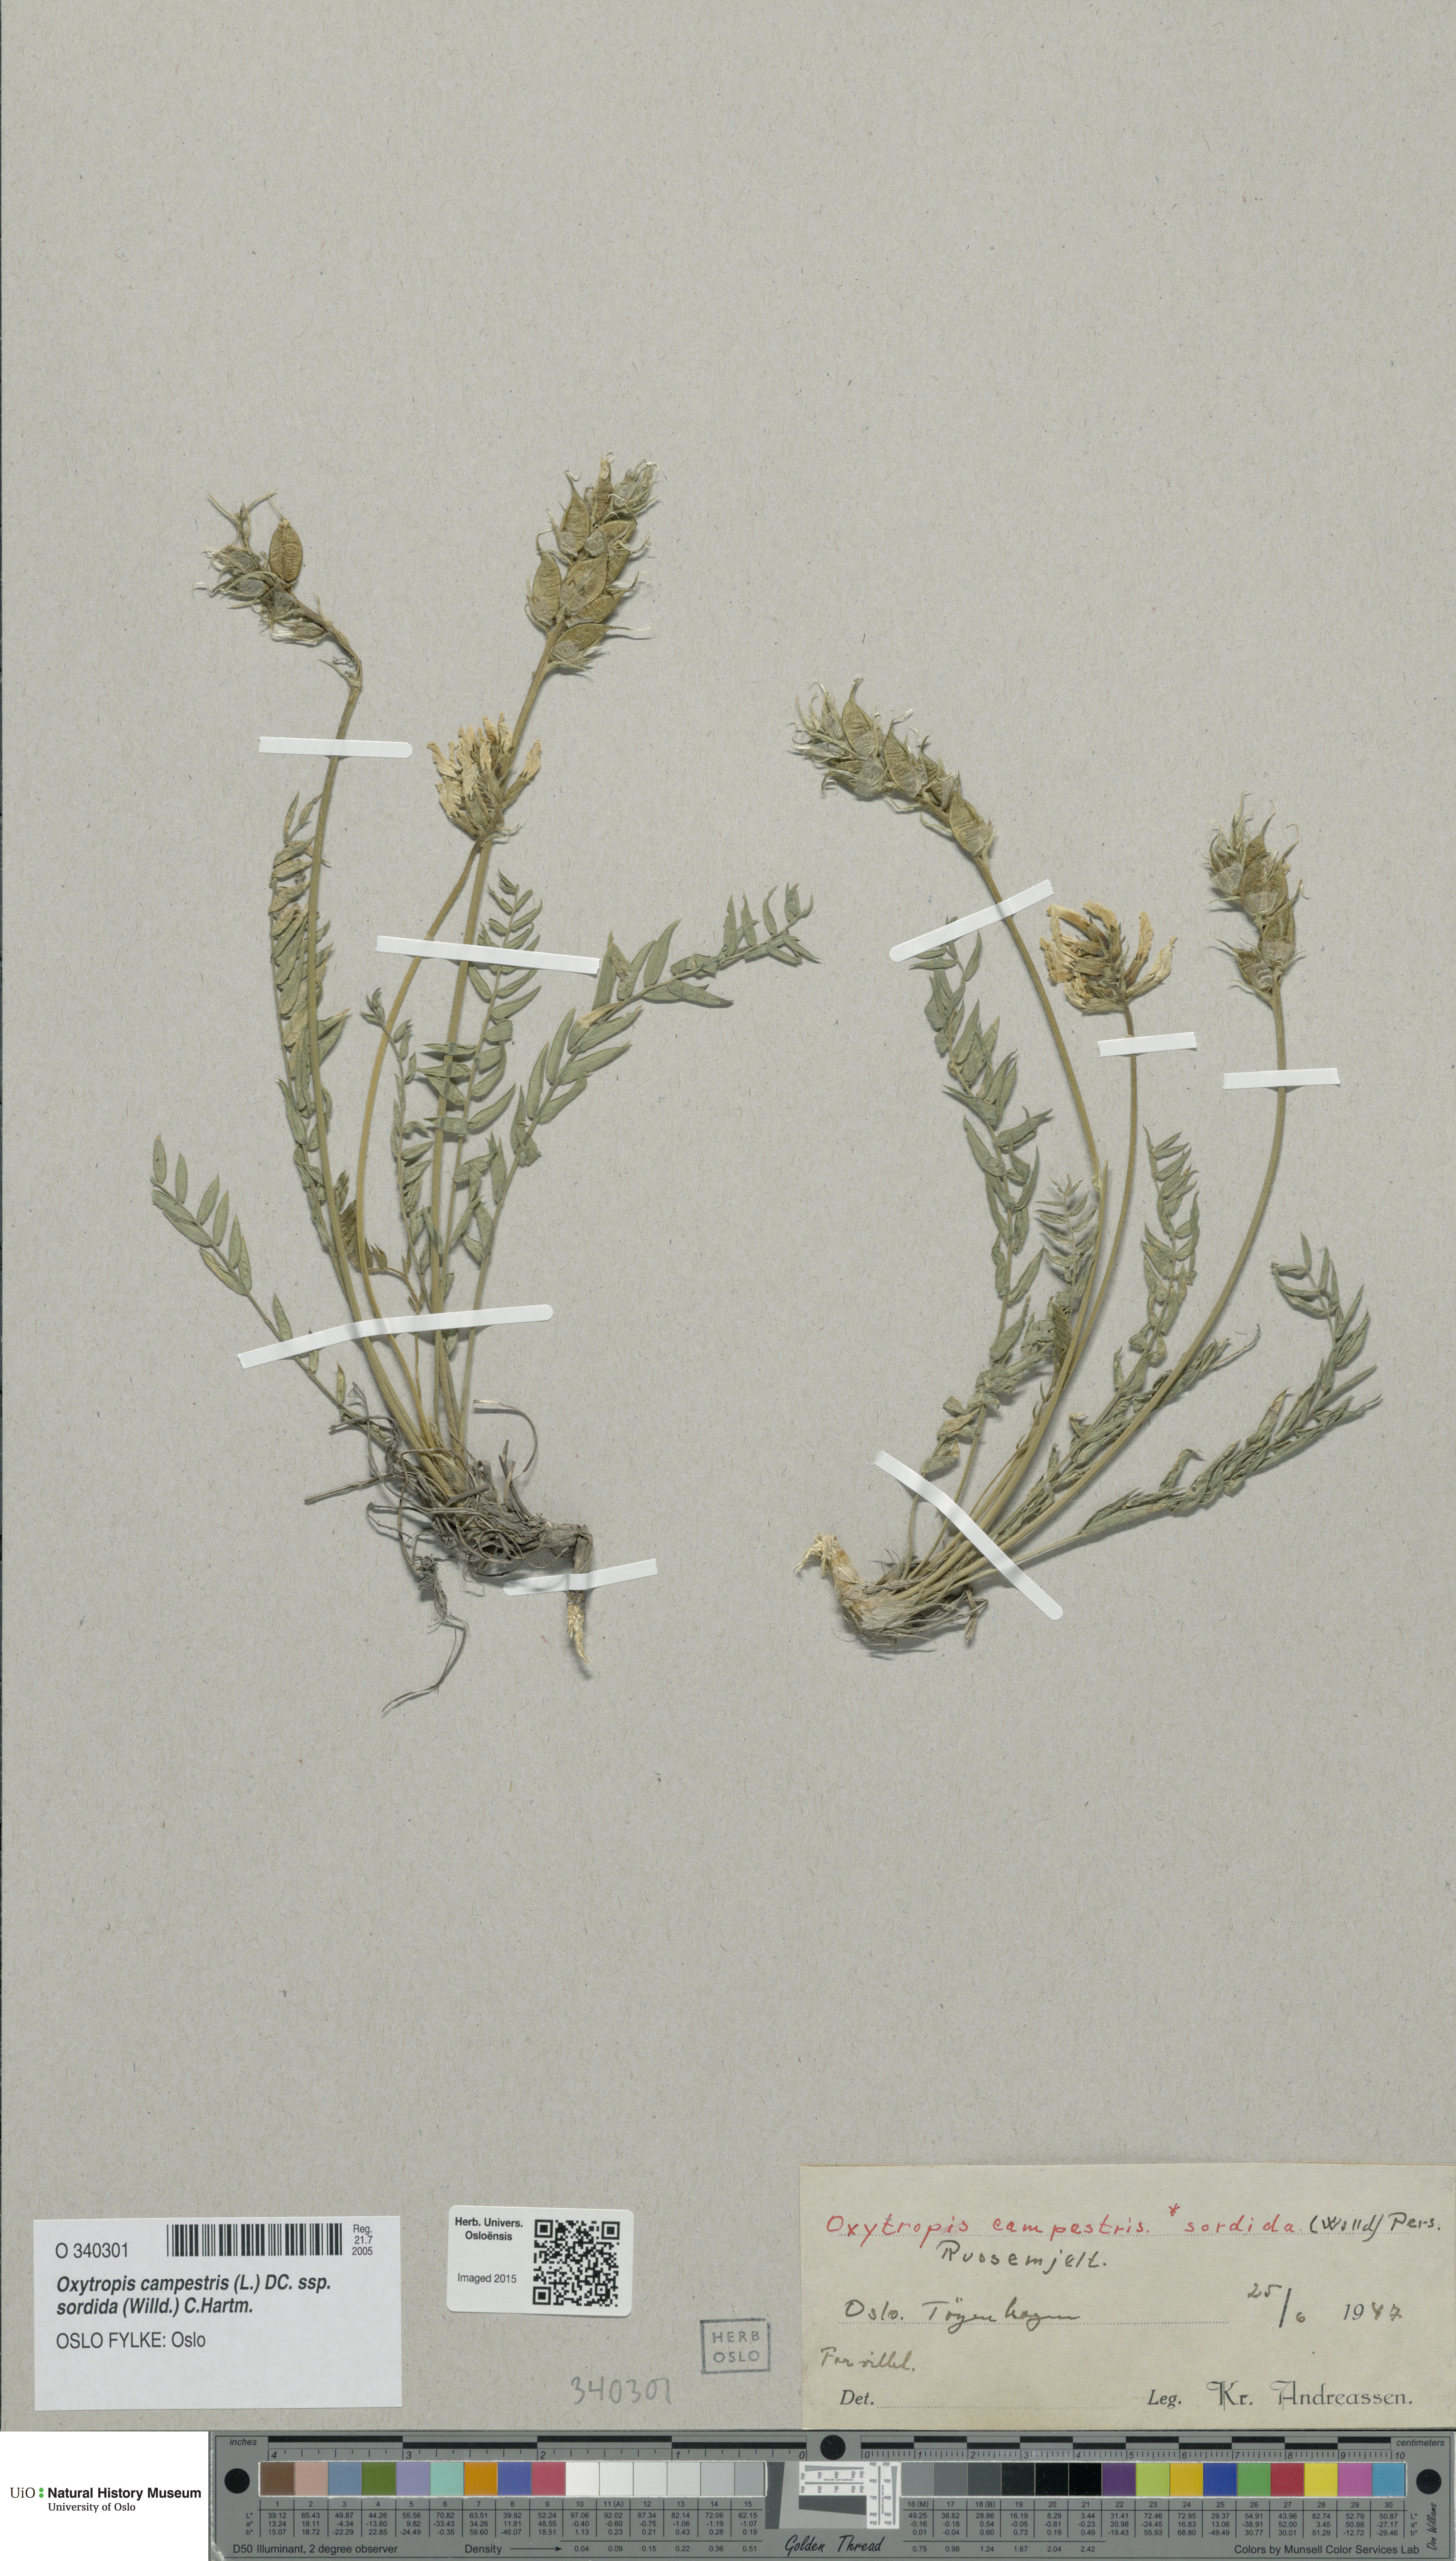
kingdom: Plantae
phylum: Tracheophyta
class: Magnoliopsida
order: Fabales
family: Fabaceae
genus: Oxytropis
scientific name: Oxytropis sordida
